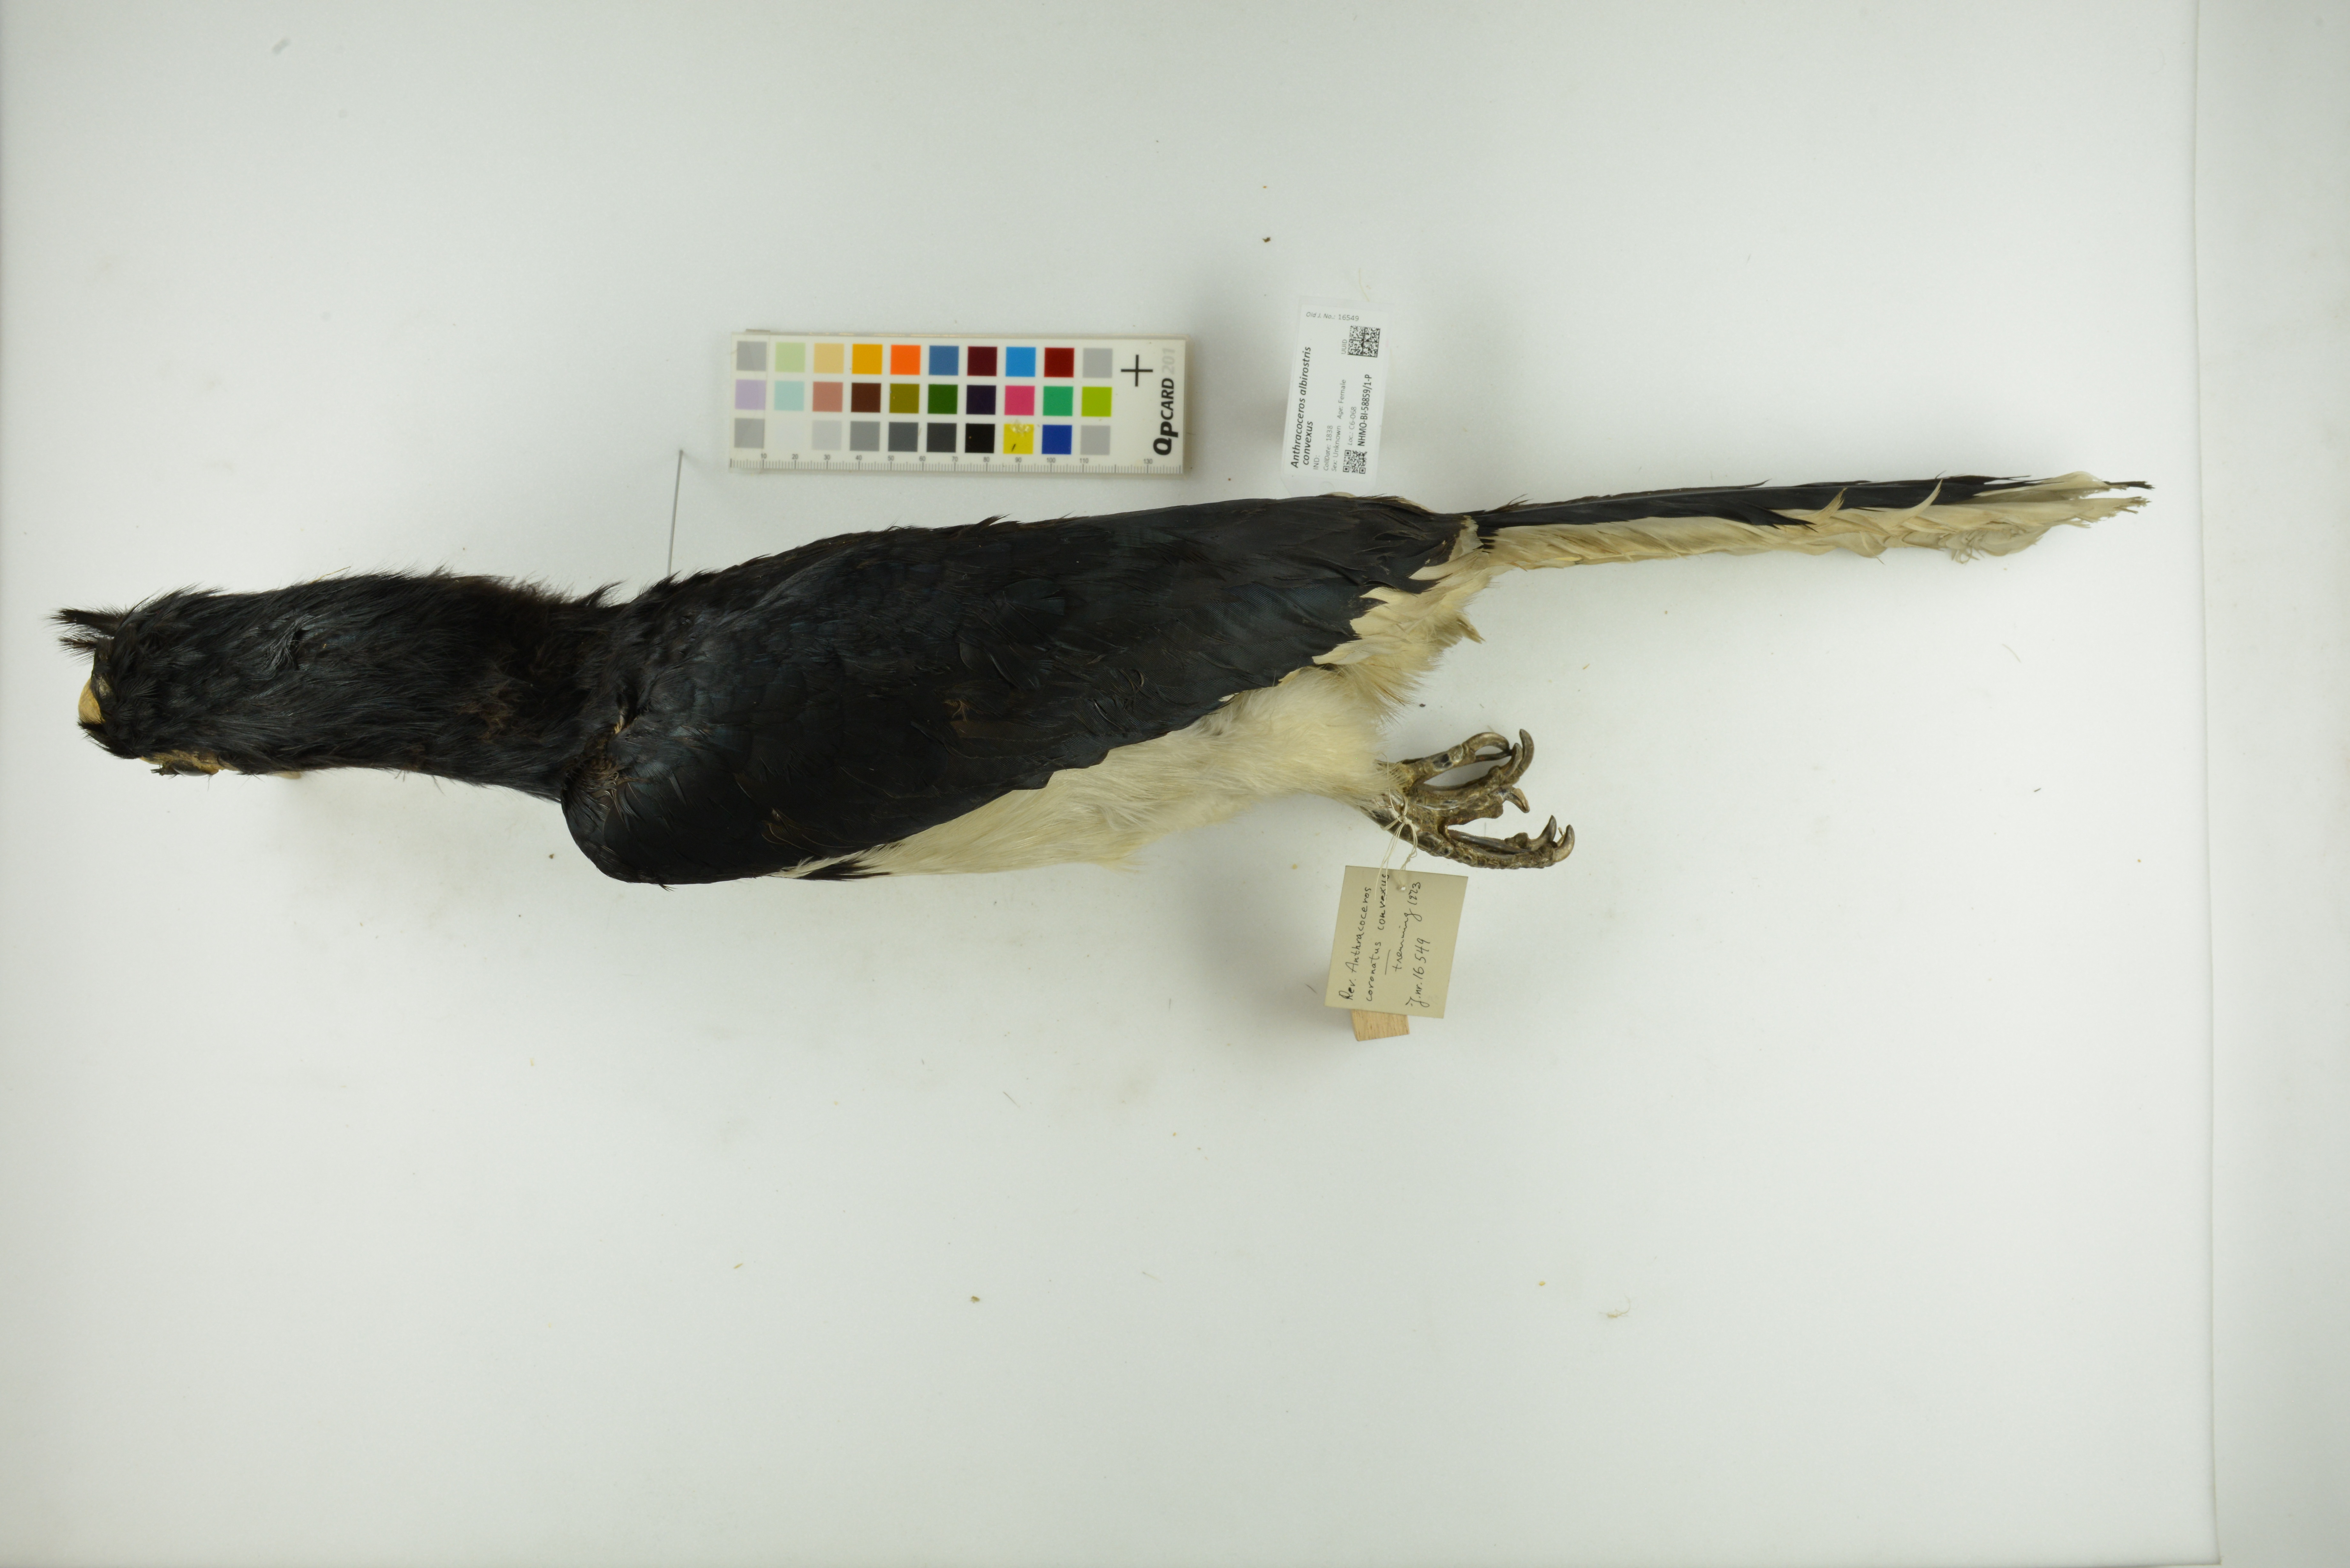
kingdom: Animalia
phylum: Chordata
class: Aves
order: Bucerotiformes
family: Bucerotidae
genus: Anthracoceros
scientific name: Anthracoceros albirostris
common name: Oriental pied-hornbill
